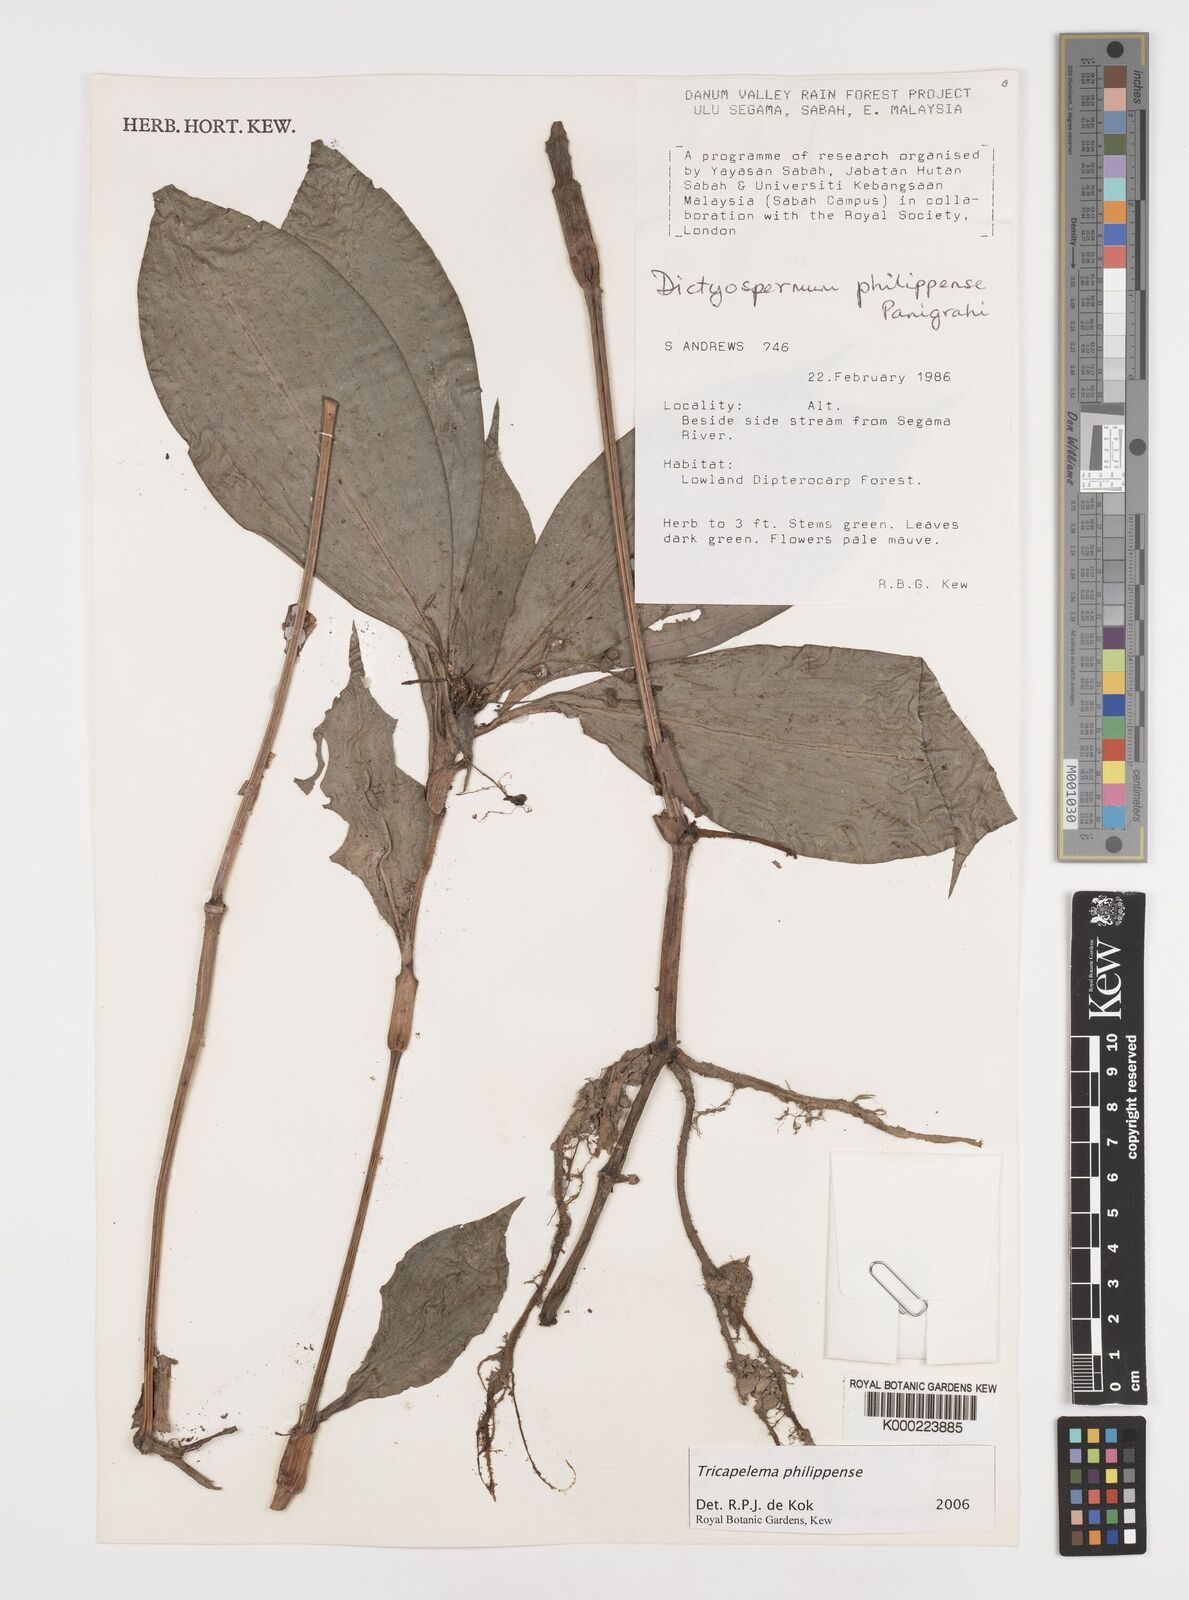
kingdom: Plantae
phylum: Tracheophyta
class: Liliopsida
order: Commelinales
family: Commelinaceae
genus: Tricarpelema
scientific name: Tricarpelema philippense
